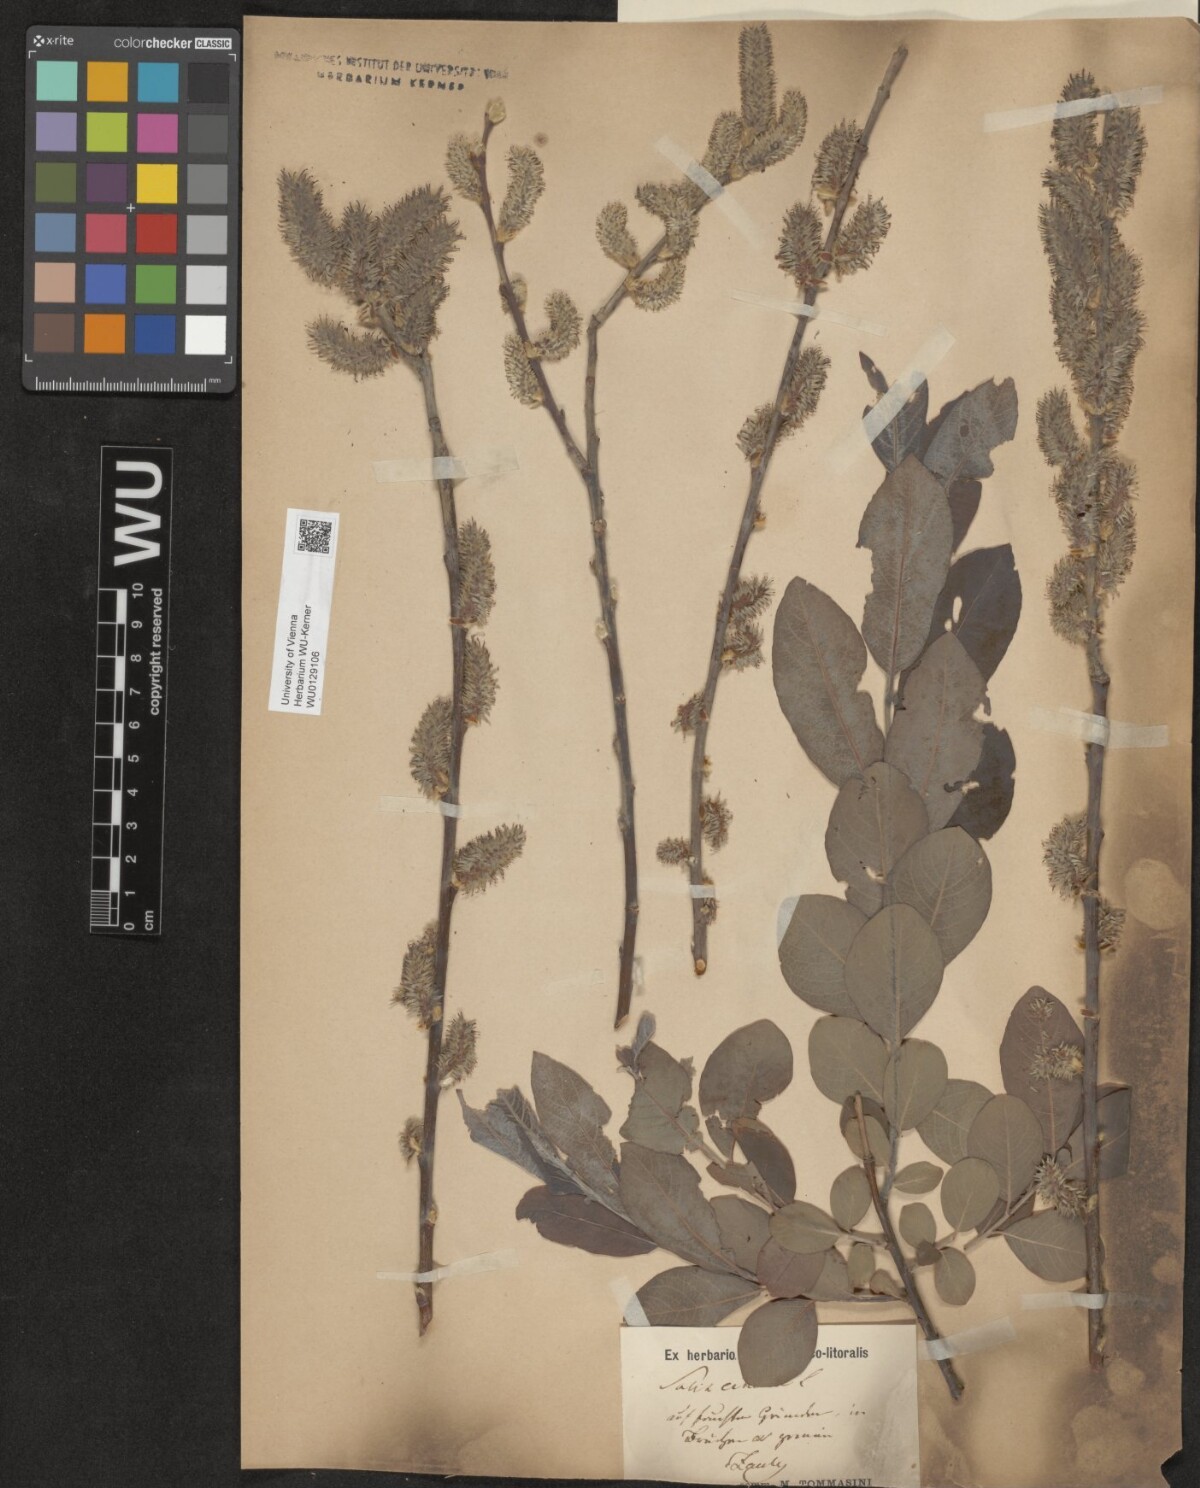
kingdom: Plantae
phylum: Tracheophyta
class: Magnoliopsida
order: Malpighiales
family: Salicaceae
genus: Salix
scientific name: Salix cinerea
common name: Common sallow
